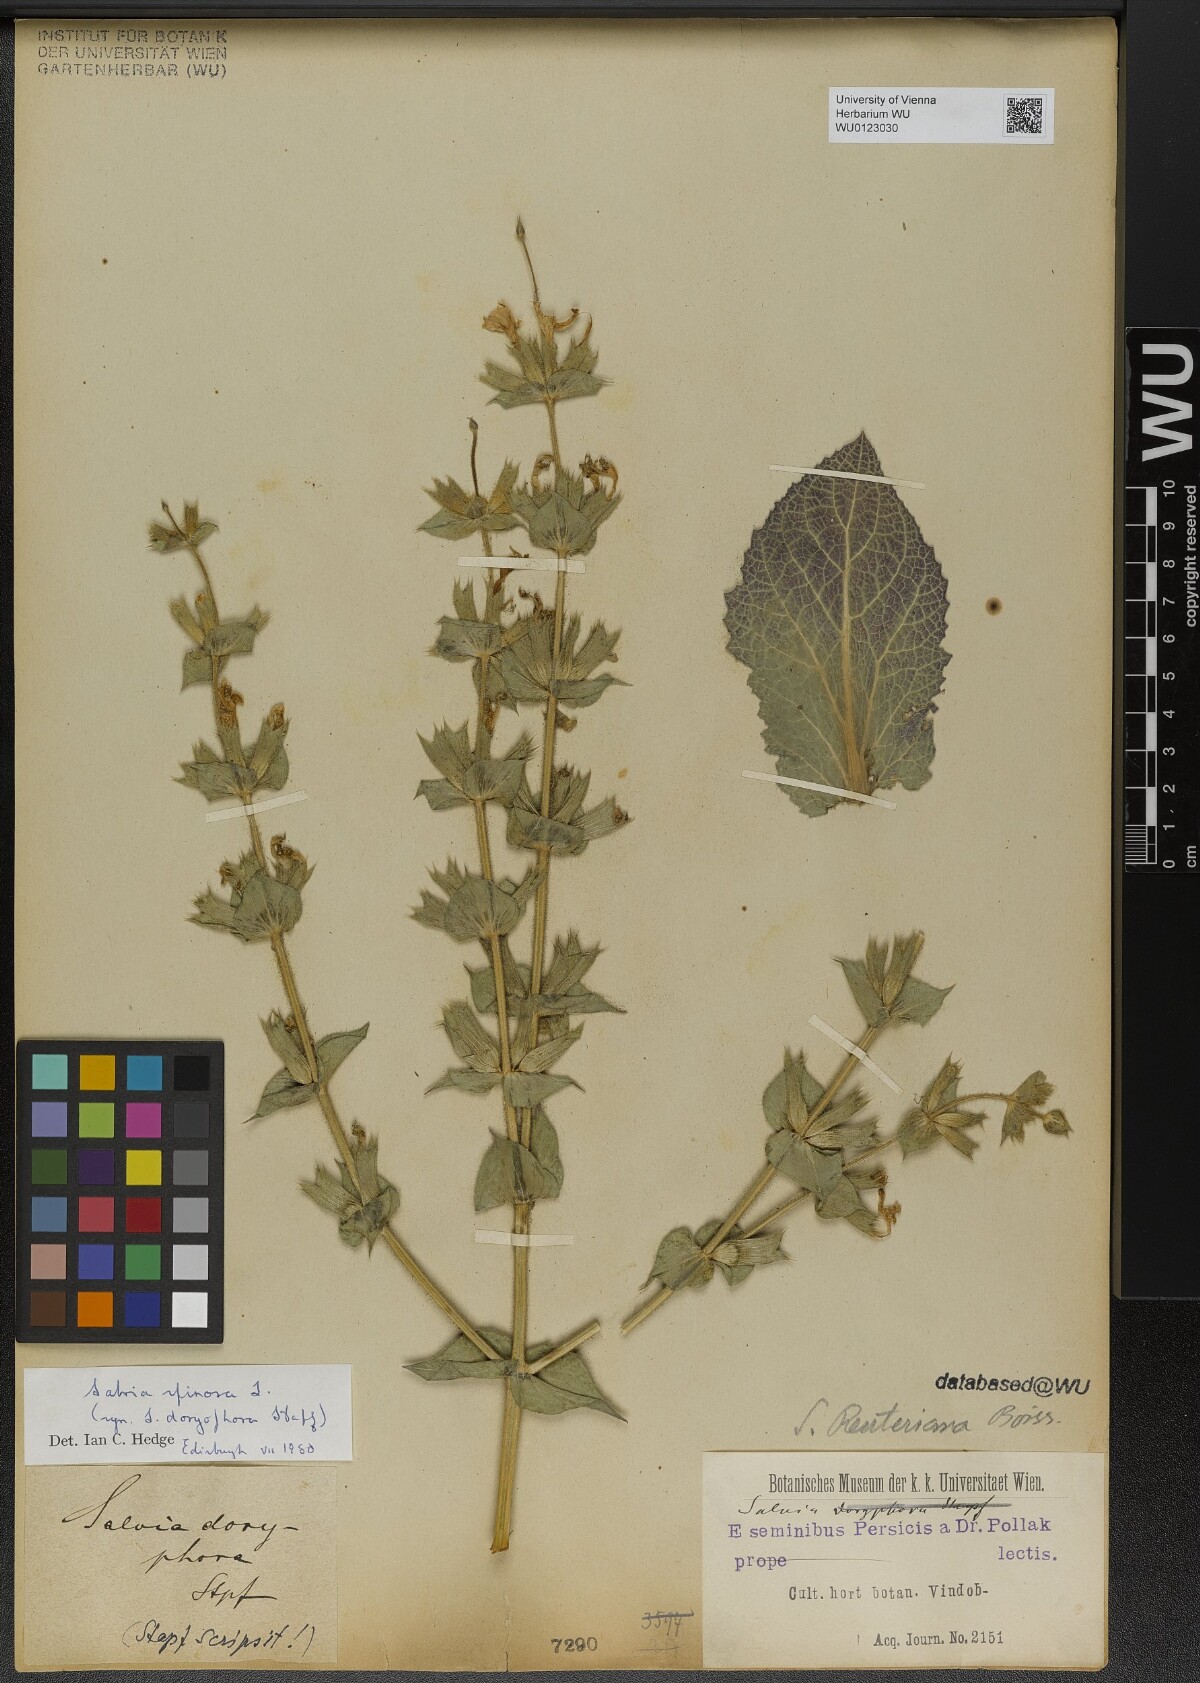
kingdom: Plantae
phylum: Tracheophyta
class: Magnoliopsida
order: Lamiales
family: Lamiaceae
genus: Salvia
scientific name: Salvia spinosa
